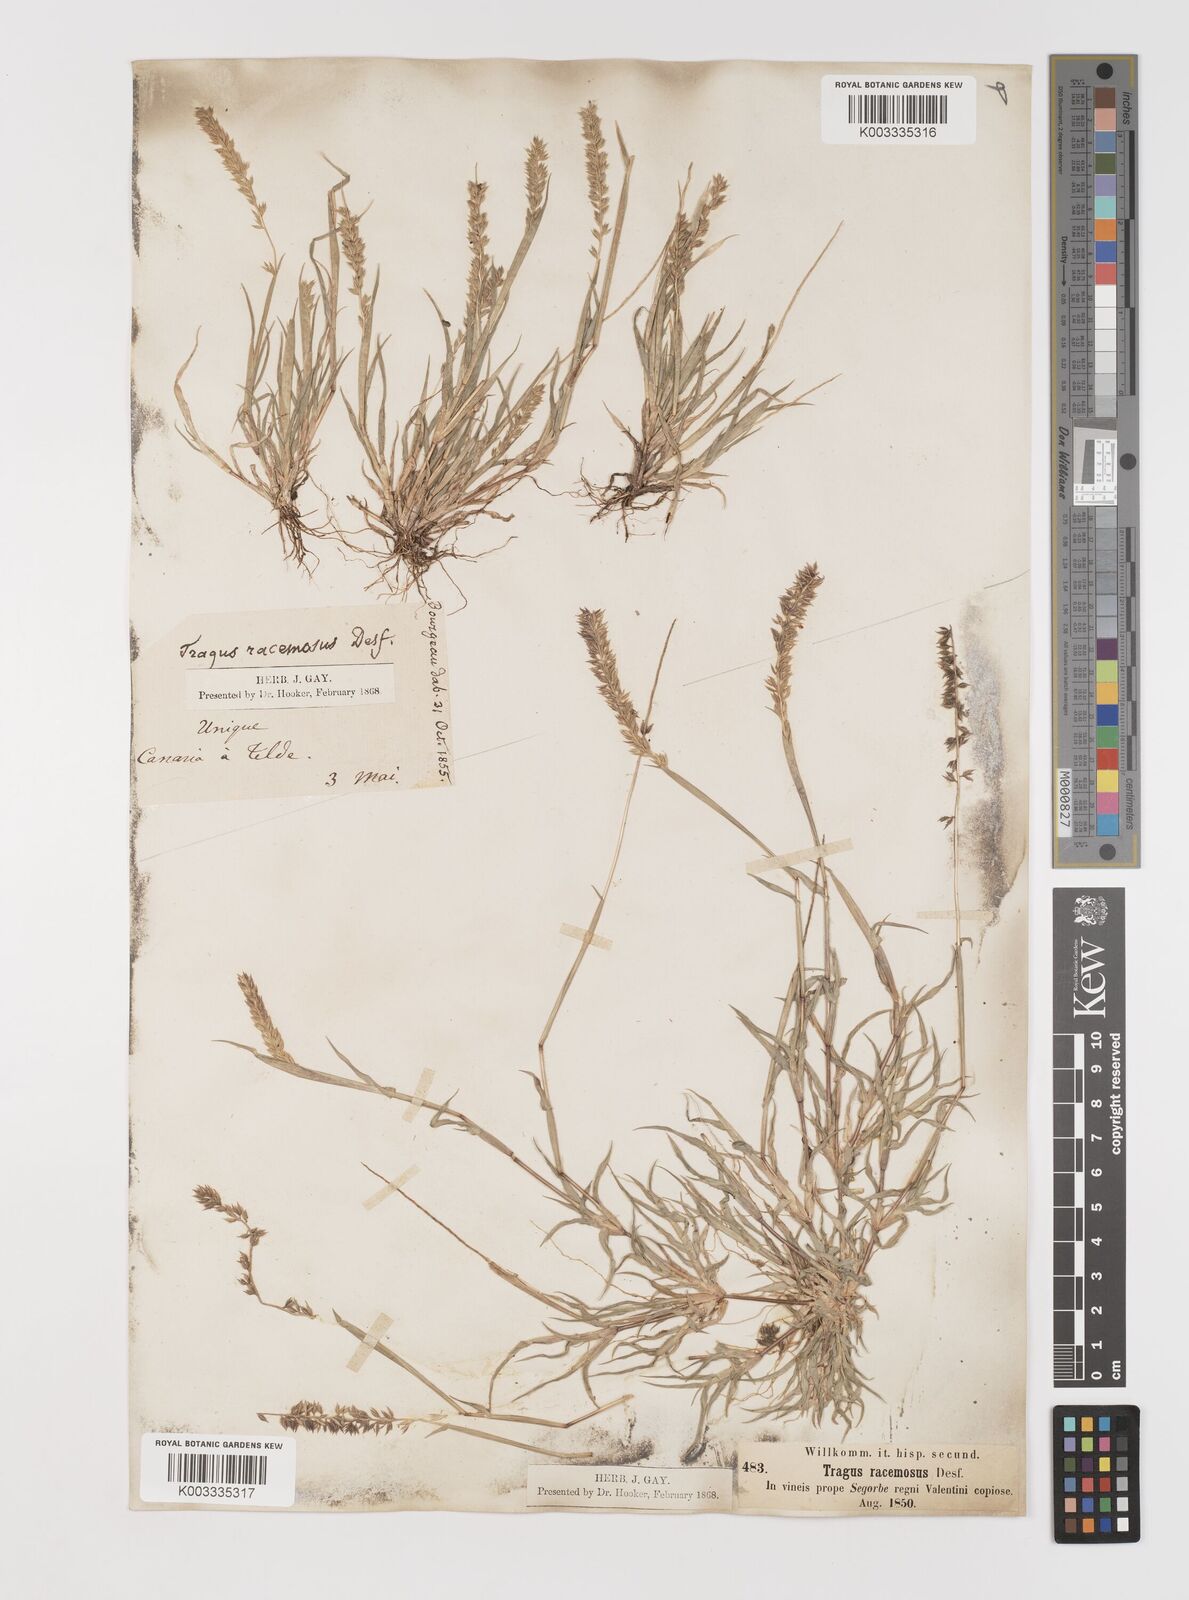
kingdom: Plantae
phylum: Tracheophyta
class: Liliopsida
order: Poales
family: Poaceae
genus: Tragus
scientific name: Tragus racemosus
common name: European bur-grass
